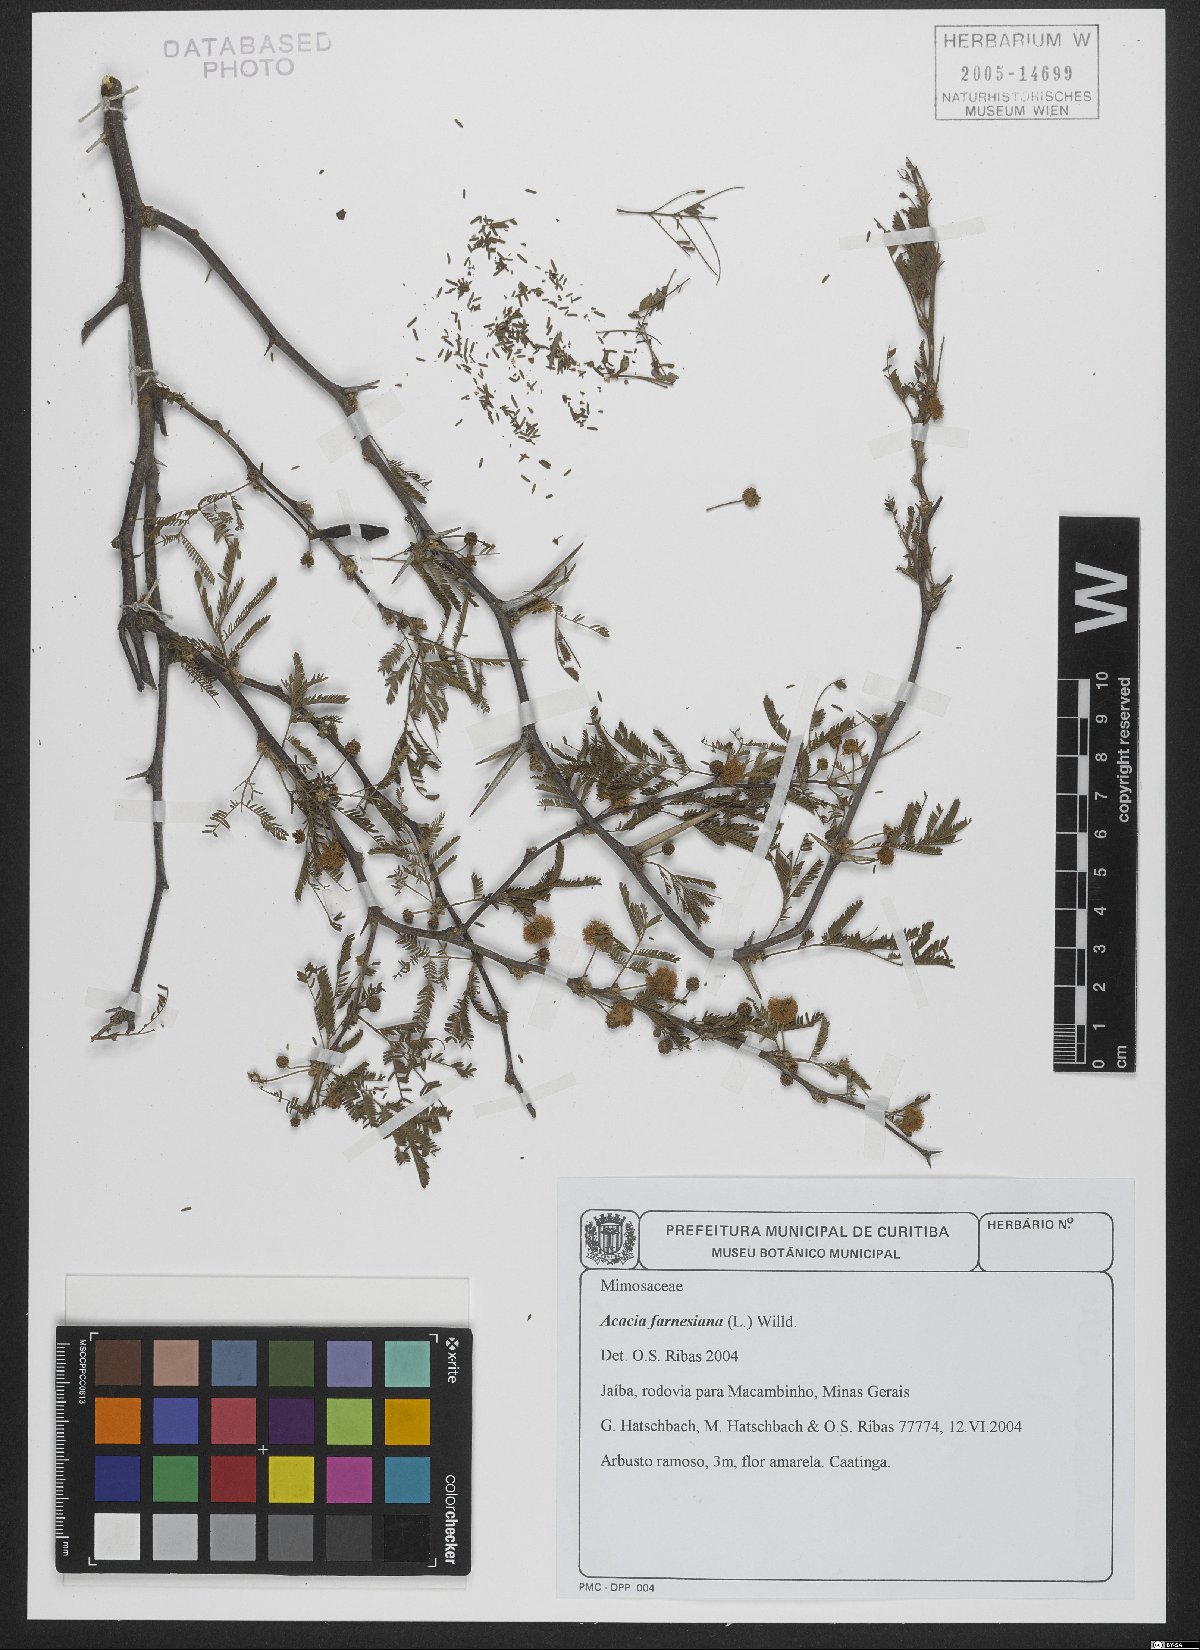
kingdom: Plantae
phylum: Tracheophyta
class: Magnoliopsida
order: Fabales
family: Fabaceae
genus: Vachellia
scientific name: Vachellia farnesiana
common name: Sweet acacia
